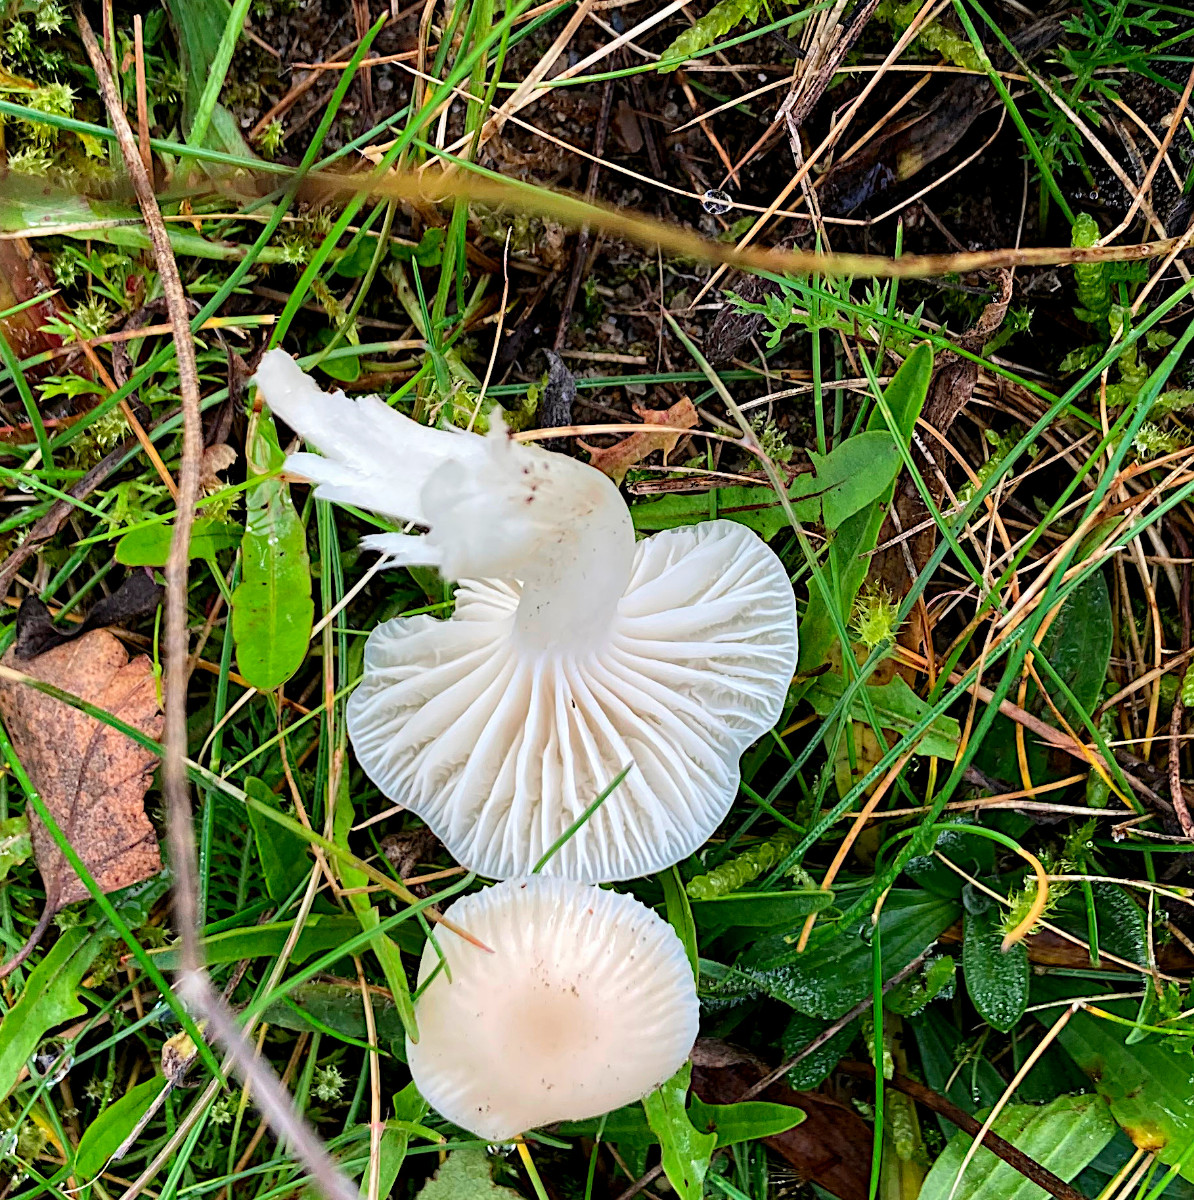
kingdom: Fungi
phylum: Basidiomycota
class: Agaricomycetes
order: Agaricales
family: Hygrophoraceae
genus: Cuphophyllus
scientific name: Cuphophyllus virgineus
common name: snehvid vokshat
